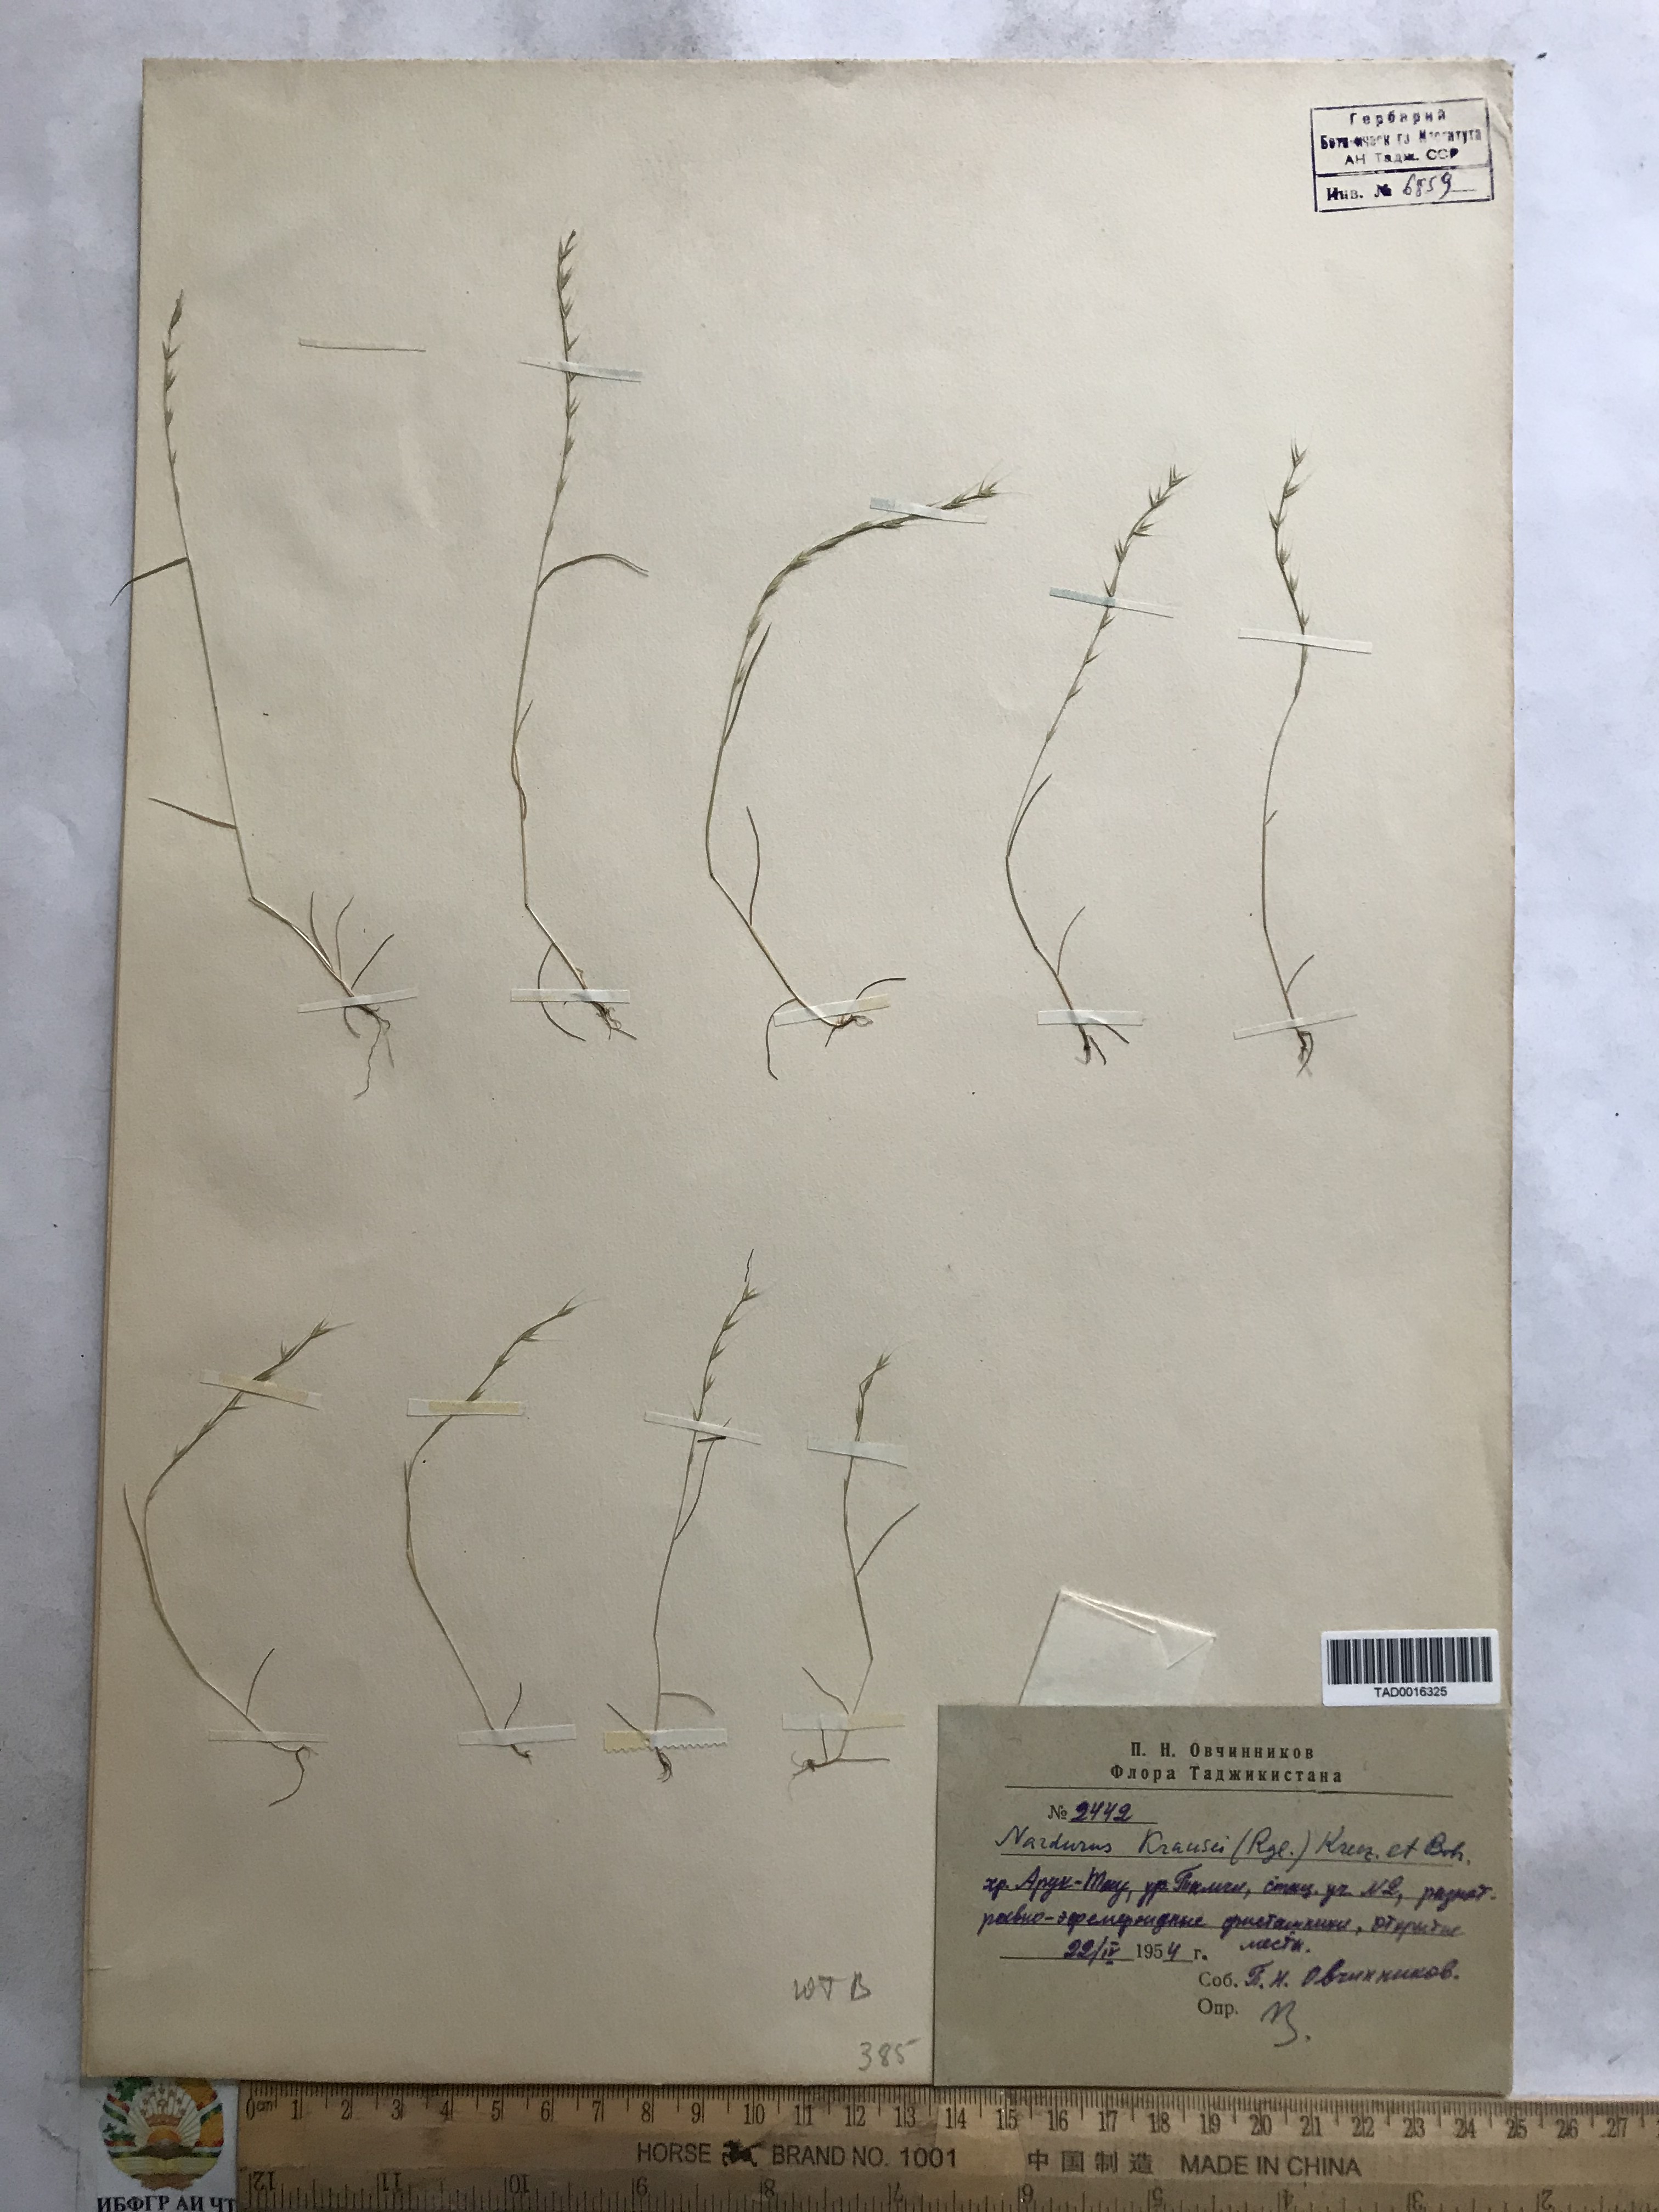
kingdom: Plantae
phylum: Tracheophyta
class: Liliopsida
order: Poales
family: Poaceae
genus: Festuca
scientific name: Festuca maritima
